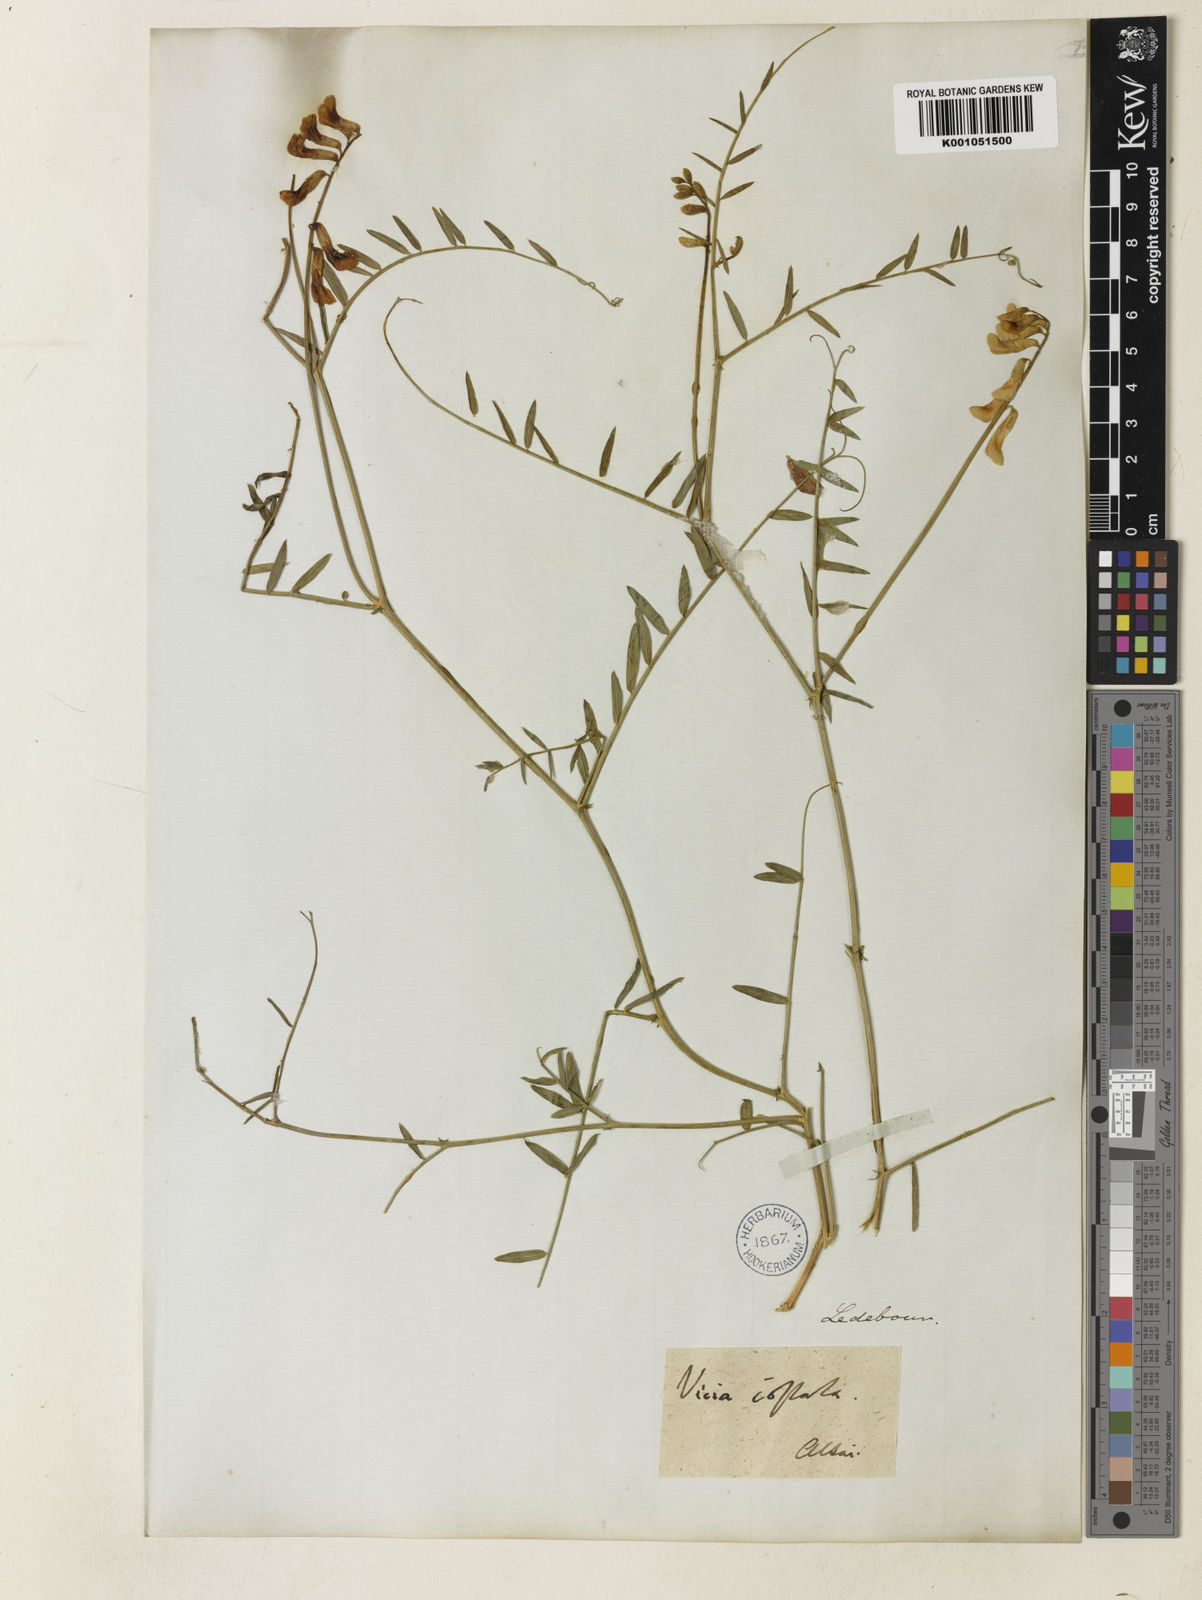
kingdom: Plantae
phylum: Tracheophyta
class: Magnoliopsida
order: Fabales
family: Fabaceae
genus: Vicia
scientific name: Vicia costata
